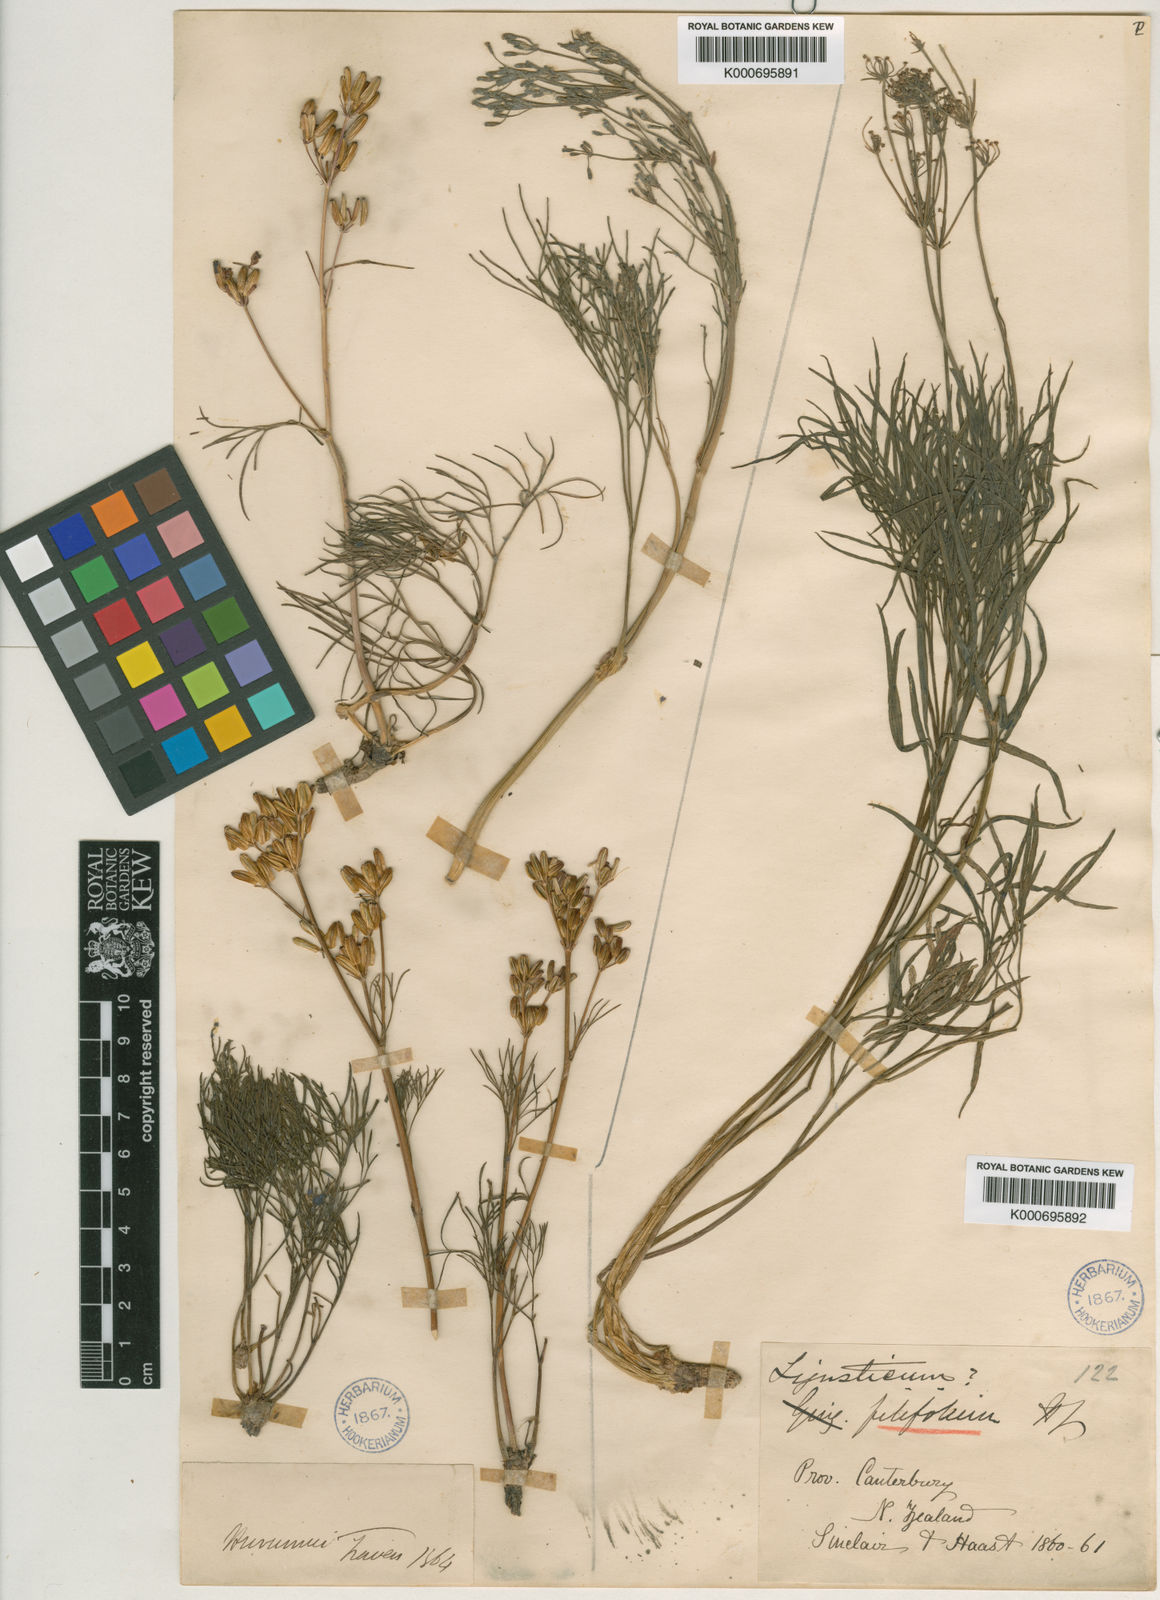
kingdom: Plantae
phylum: Tracheophyta
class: Magnoliopsida
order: Apiales
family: Apiaceae
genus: Anisotome
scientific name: Anisotome filifolia
